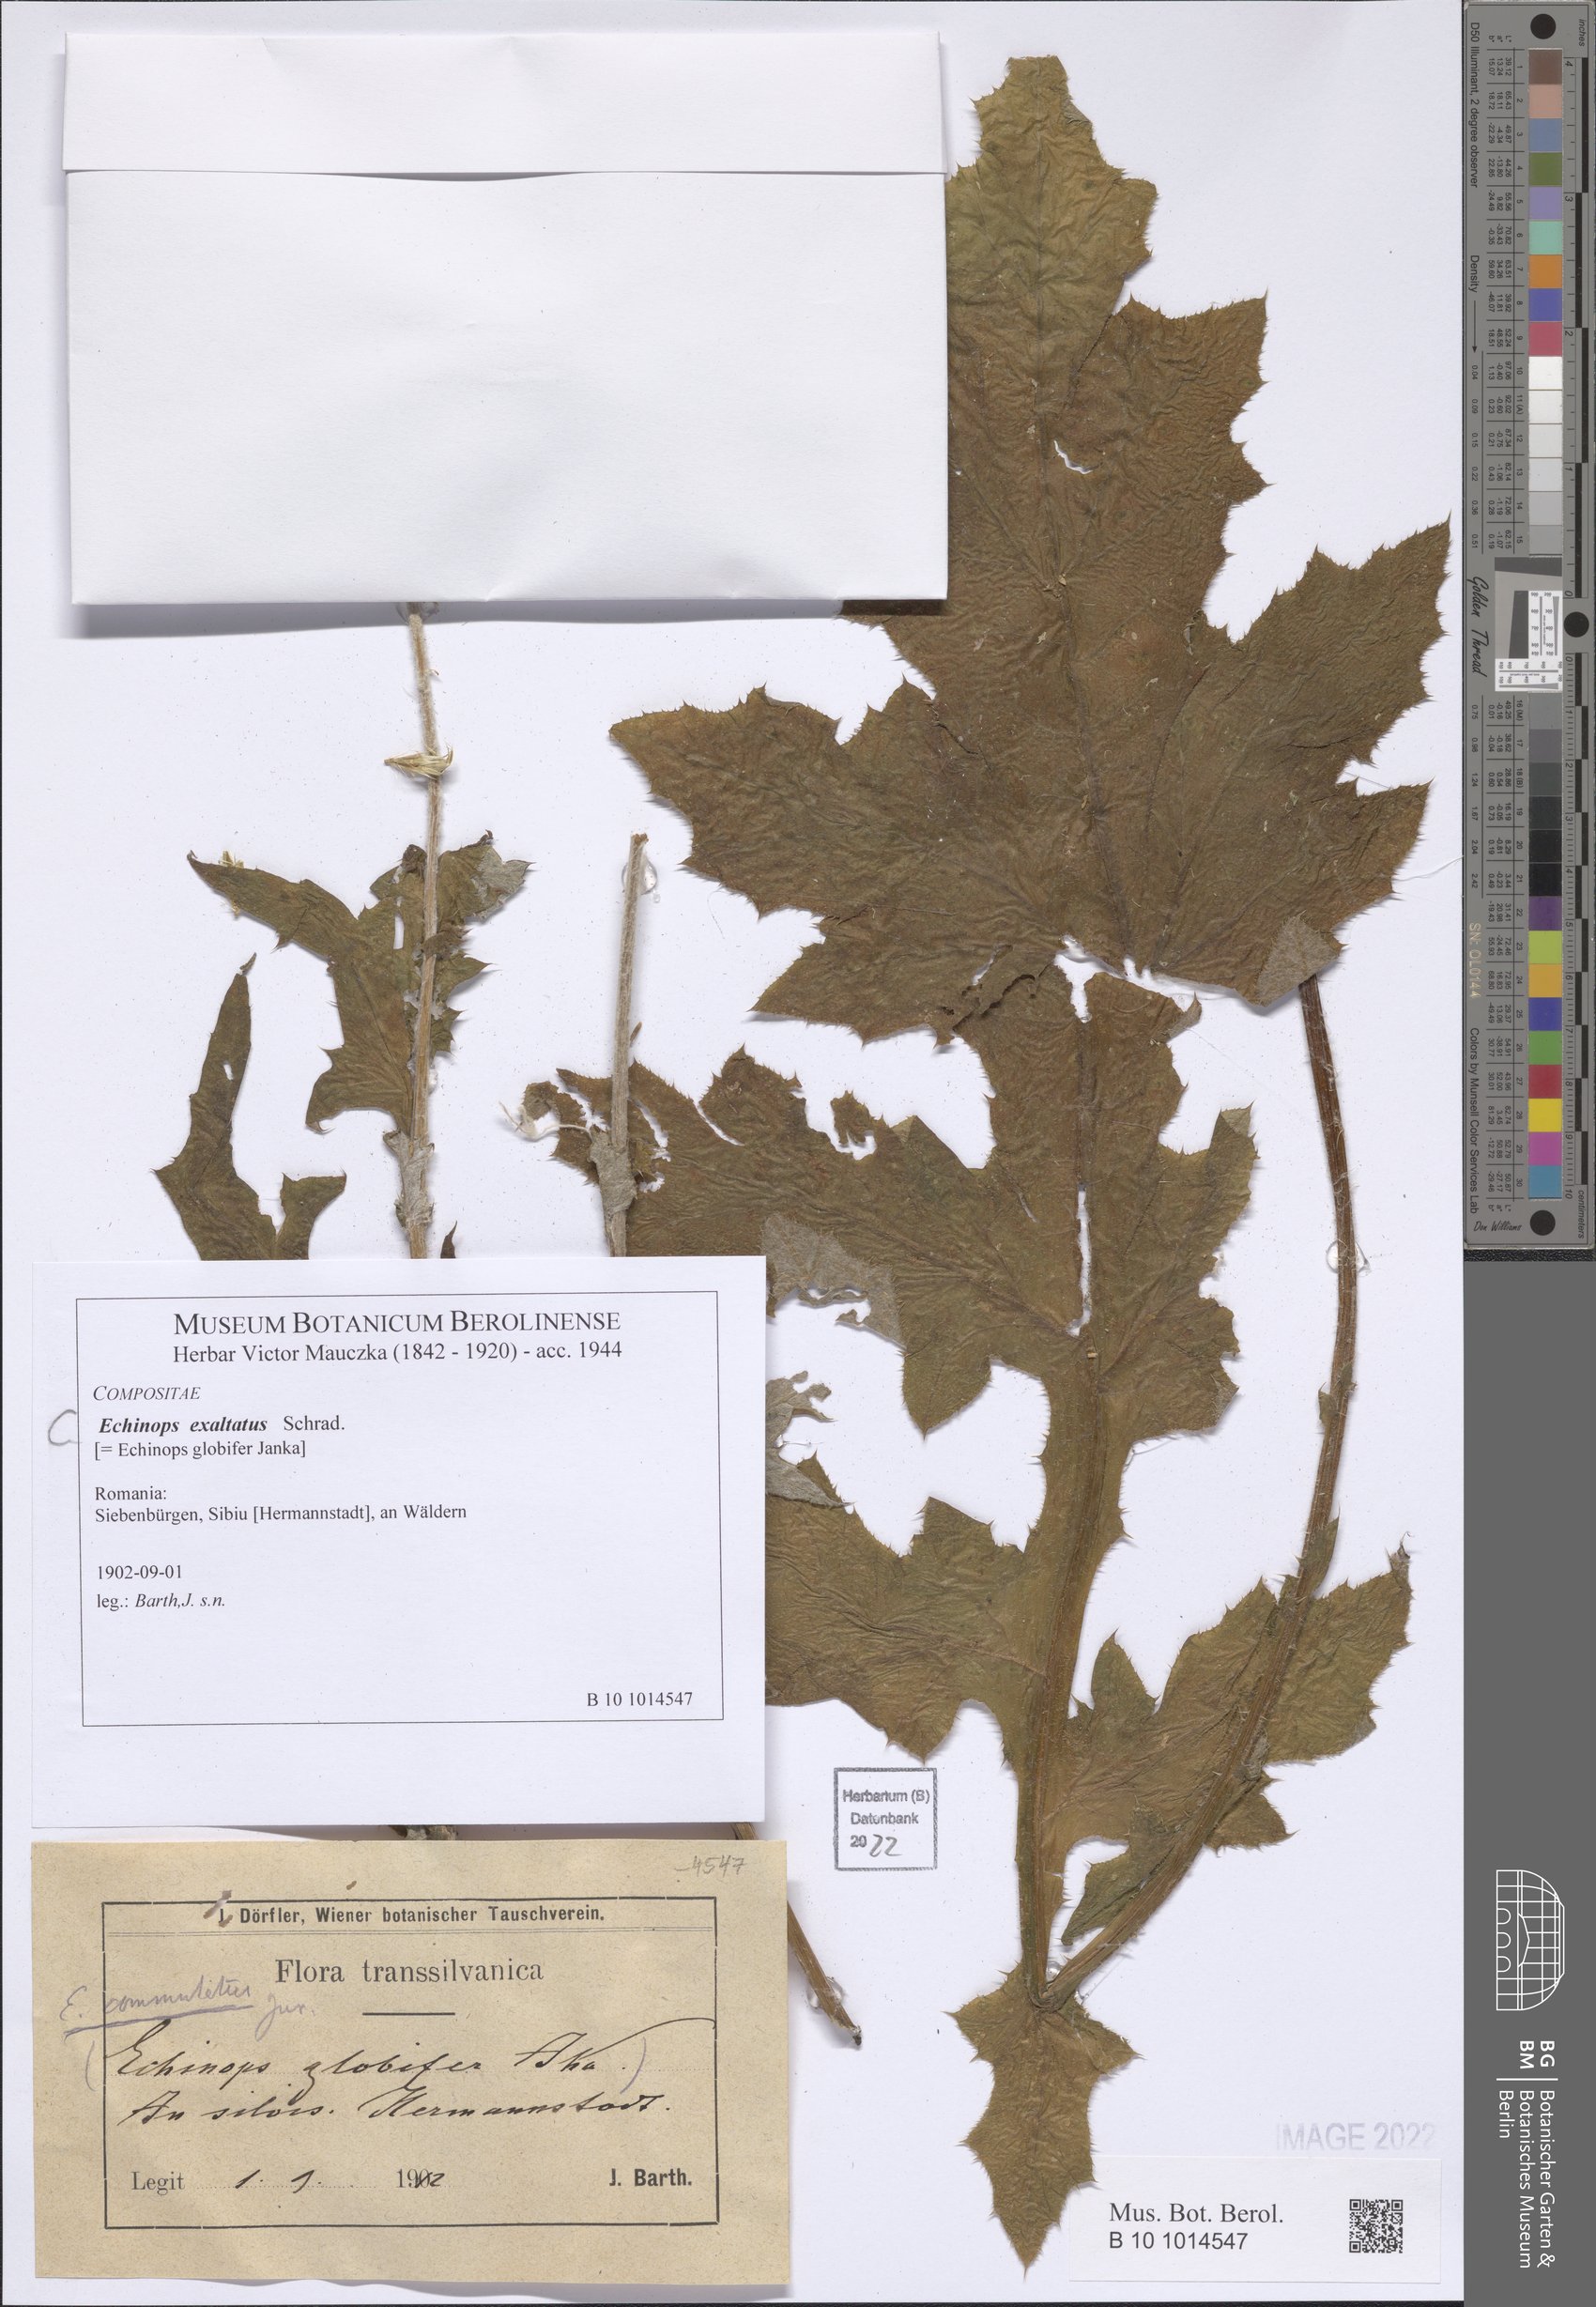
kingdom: Plantae
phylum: Tracheophyta
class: Magnoliopsida
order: Asterales
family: Asteraceae
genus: Echinops
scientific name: Echinops exaltatus
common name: Globe-thistle
